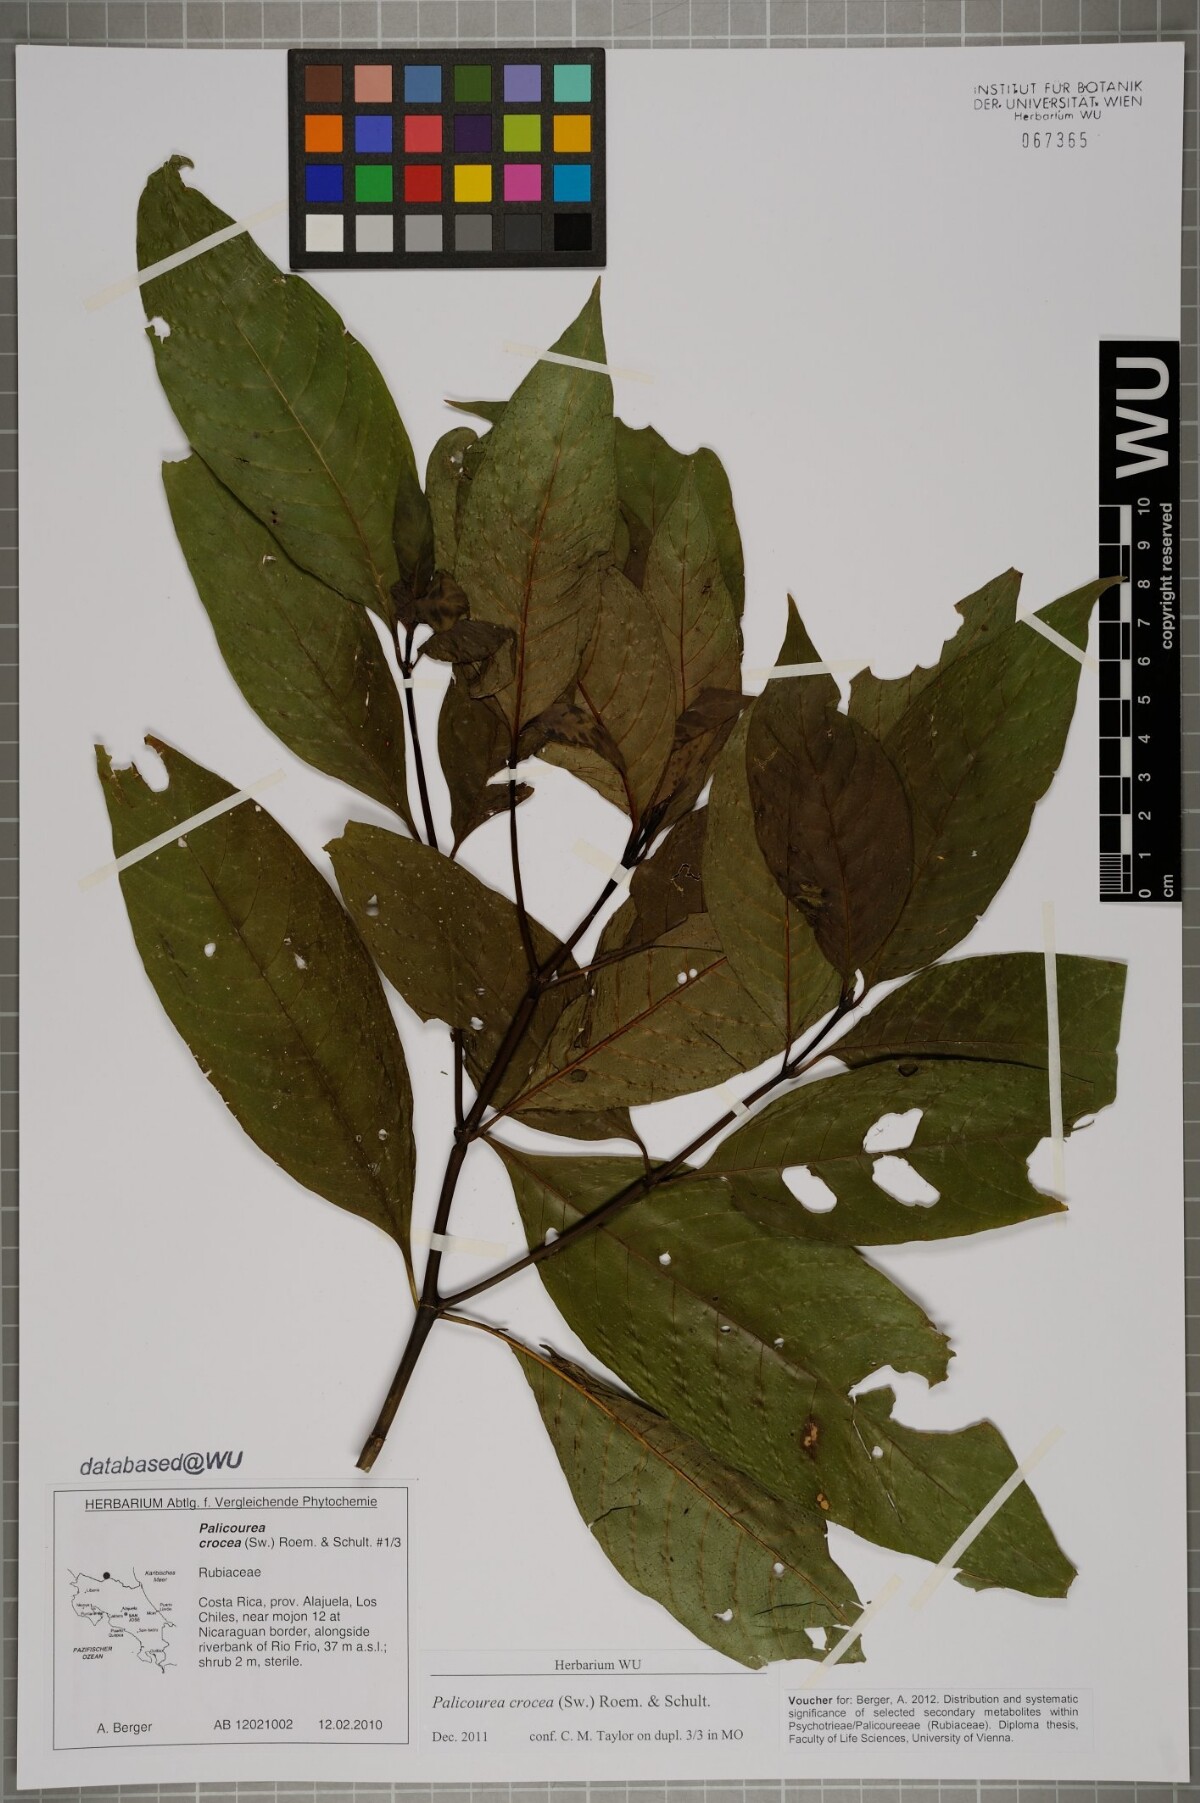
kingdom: Plantae
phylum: Tracheophyta
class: Magnoliopsida
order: Gentianales
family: Rubiaceae
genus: Palicourea
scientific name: Palicourea crocea
